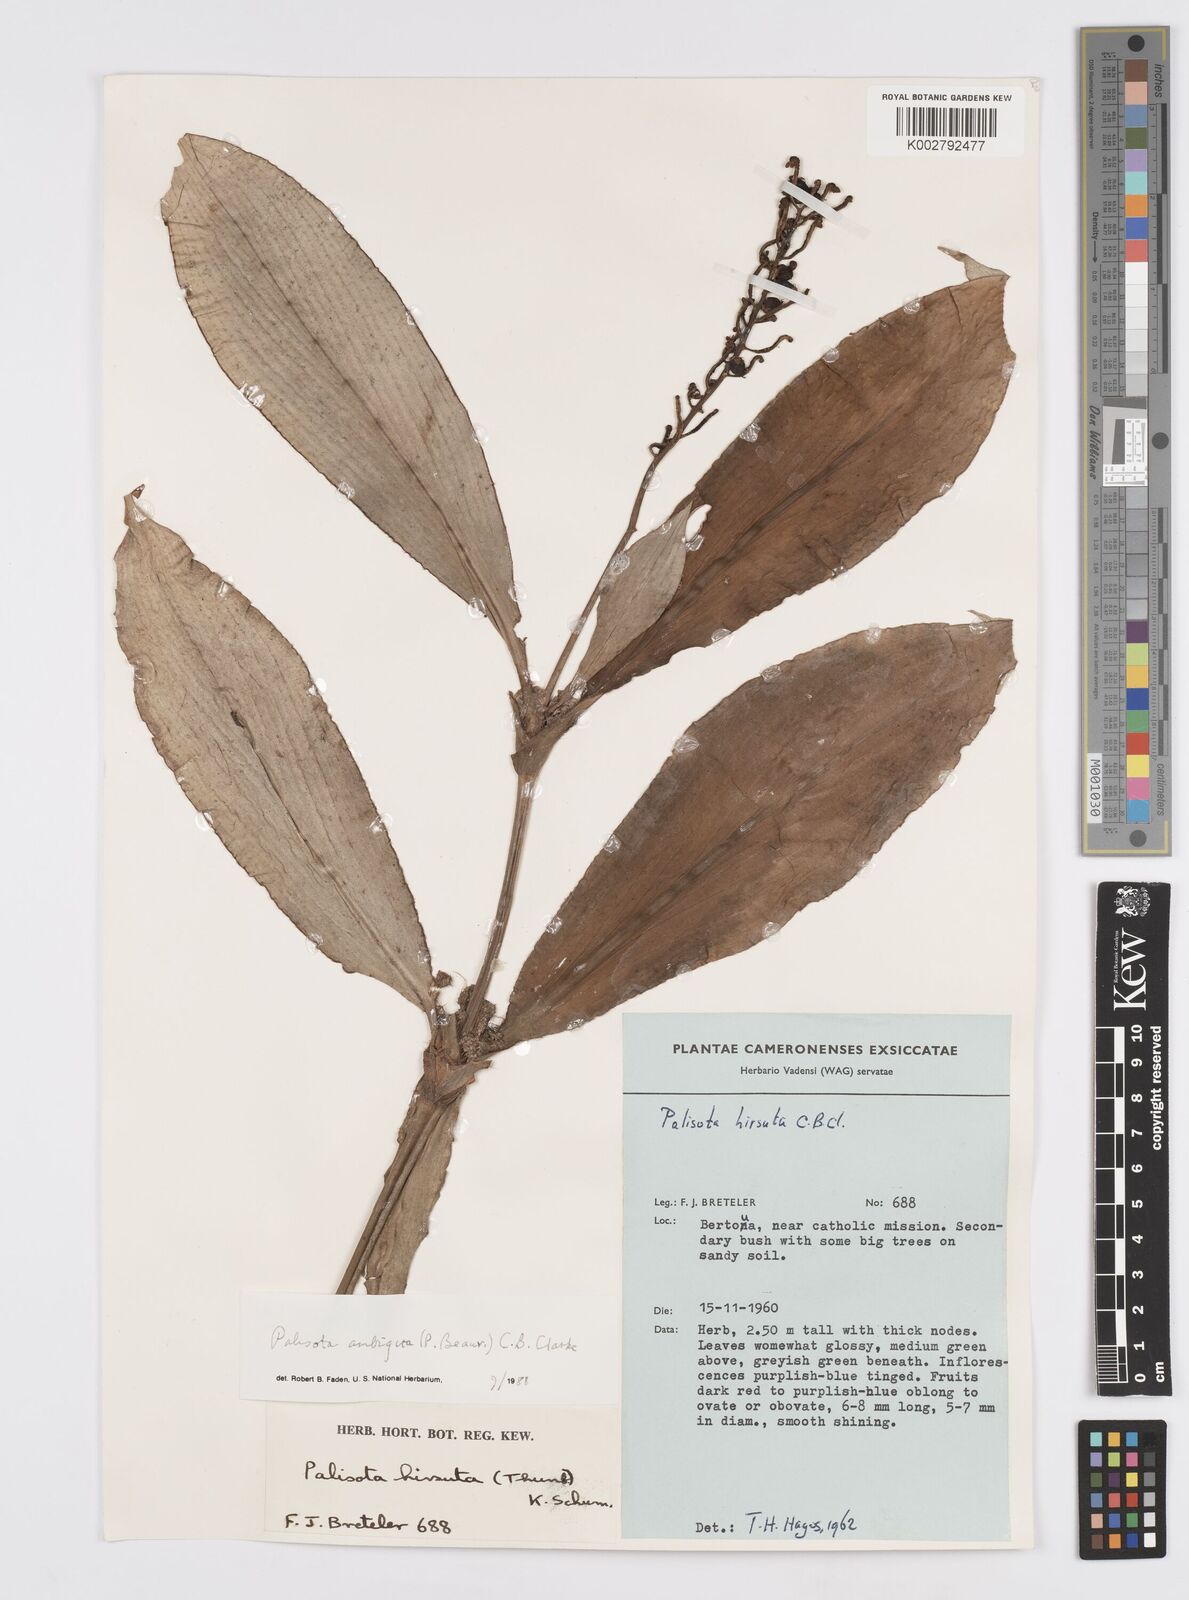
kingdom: Plantae
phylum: Tracheophyta
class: Liliopsida
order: Commelinales
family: Commelinaceae
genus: Palisota
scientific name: Palisota ambigua
